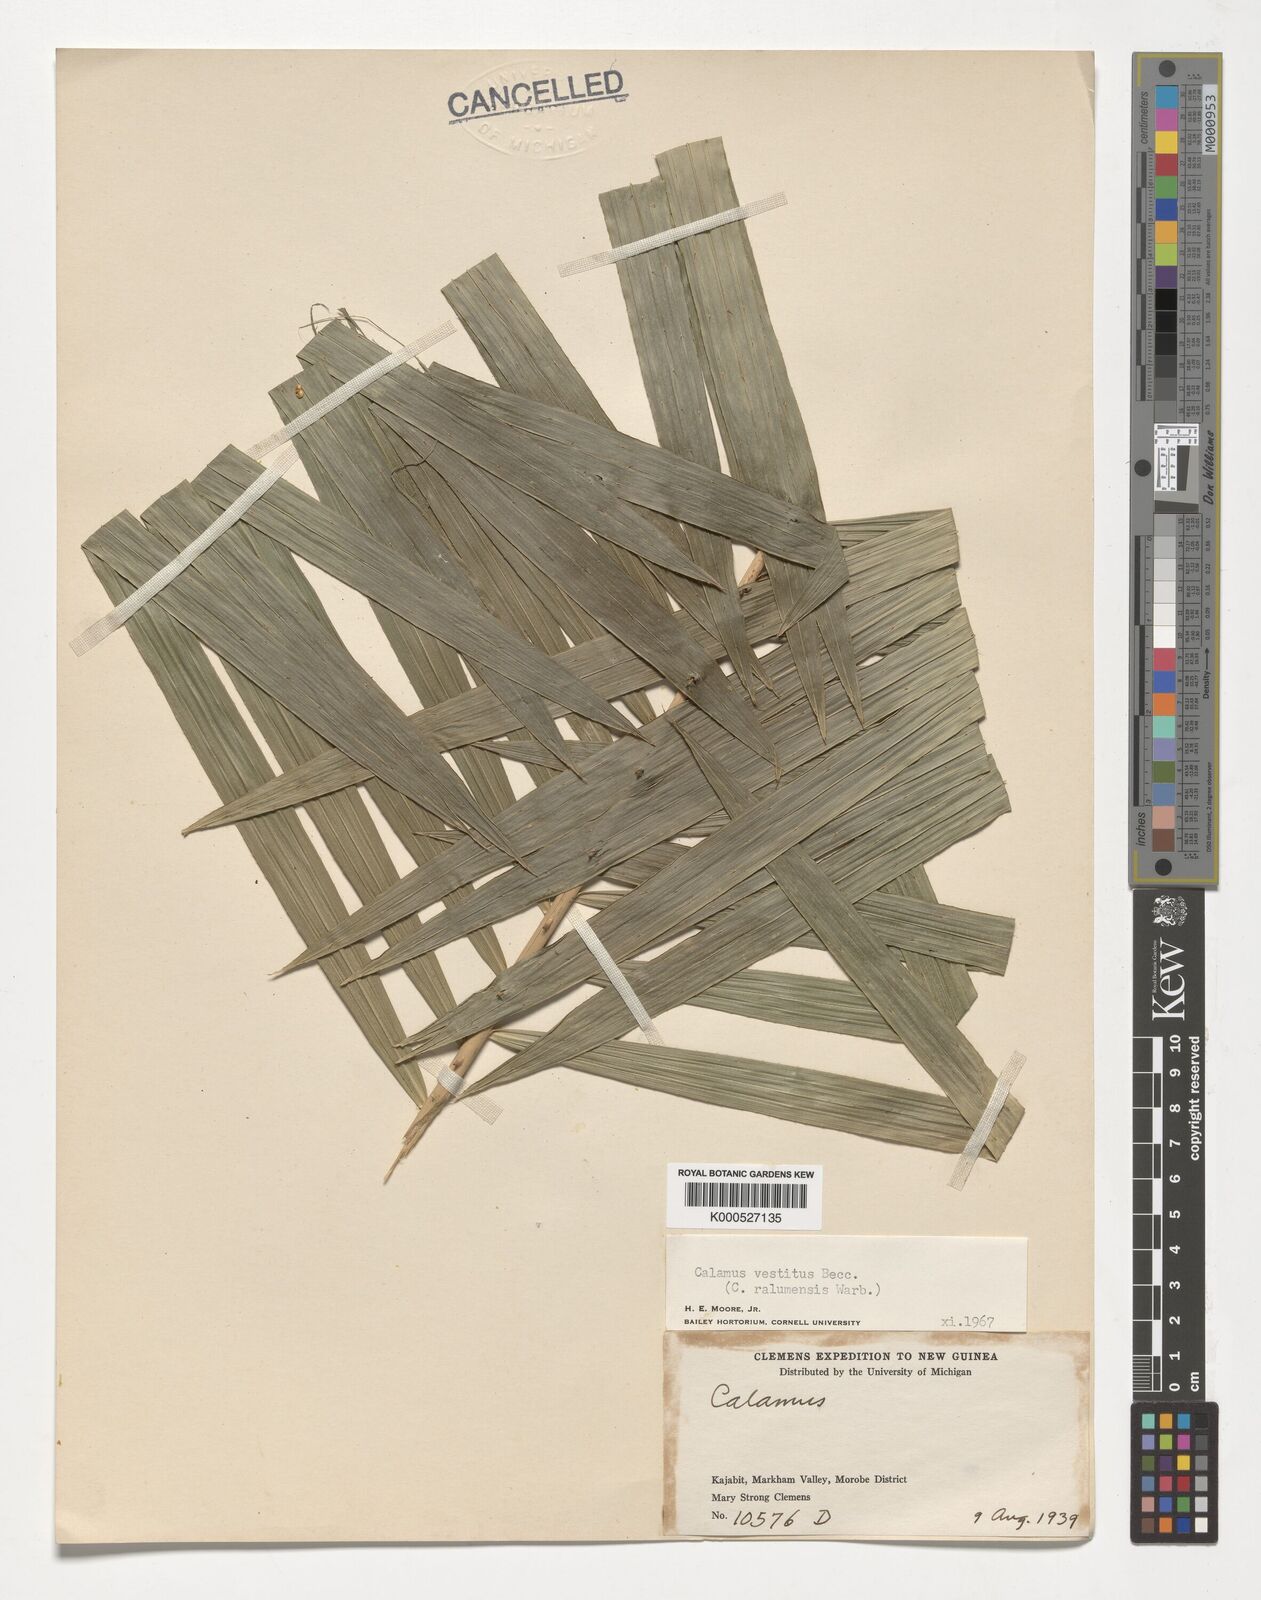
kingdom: Plantae
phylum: Tracheophyta
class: Liliopsida
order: Arecales
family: Arecaceae
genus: Calamus
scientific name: Calamus vestitus
